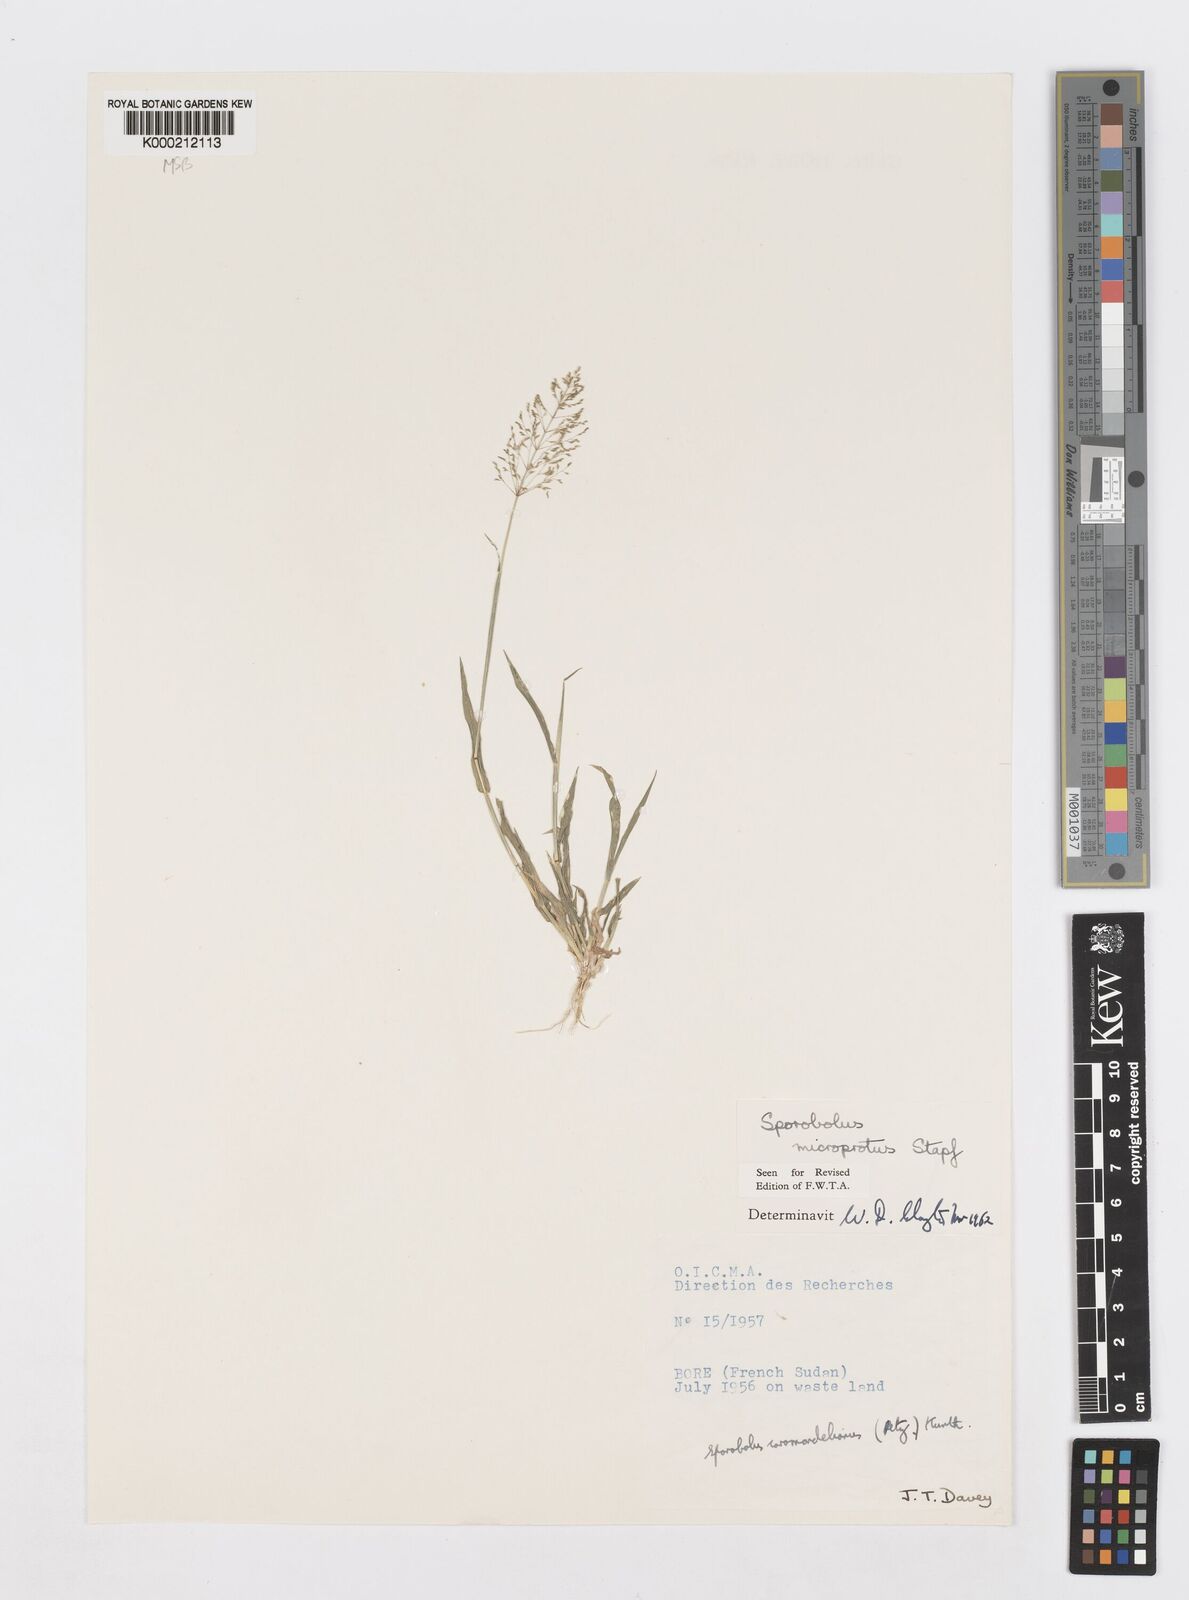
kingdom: Plantae
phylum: Tracheophyta
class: Liliopsida
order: Poales
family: Poaceae
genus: Sporobolus
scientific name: Sporobolus microprotus
